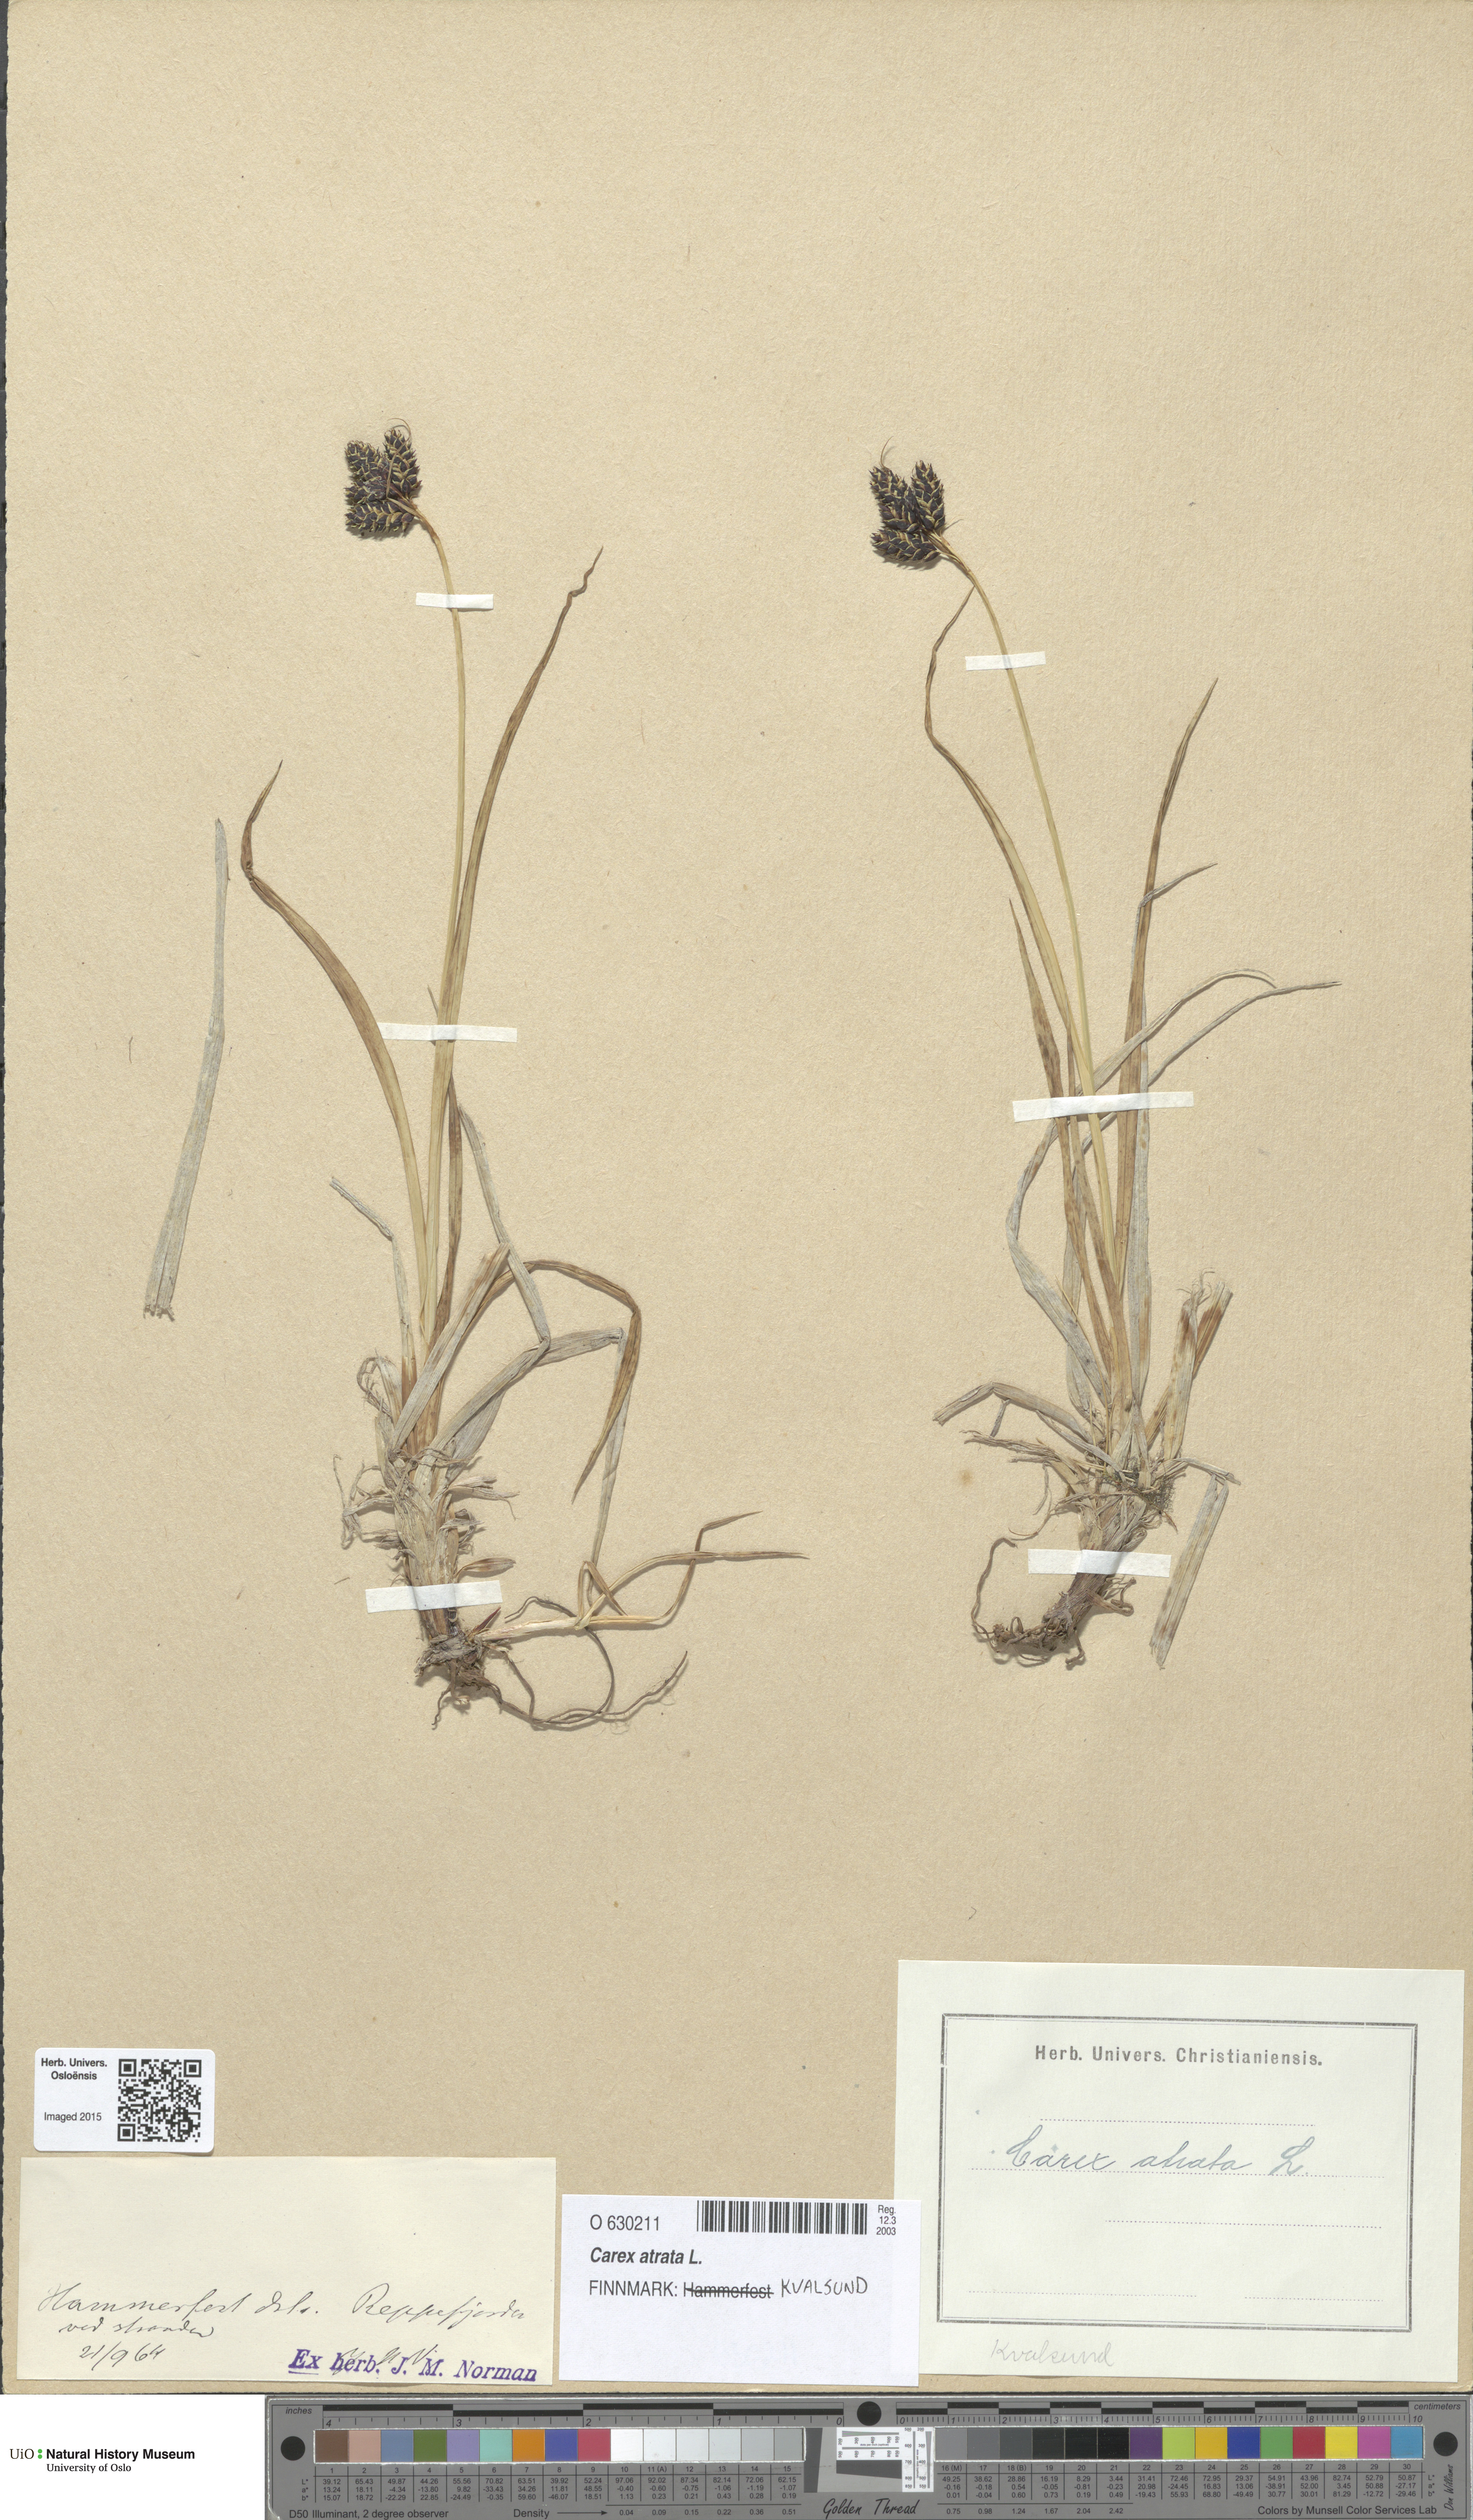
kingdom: Plantae
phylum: Tracheophyta
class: Liliopsida
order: Poales
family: Cyperaceae
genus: Carex
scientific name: Carex atrata
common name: Black alpine sedge
